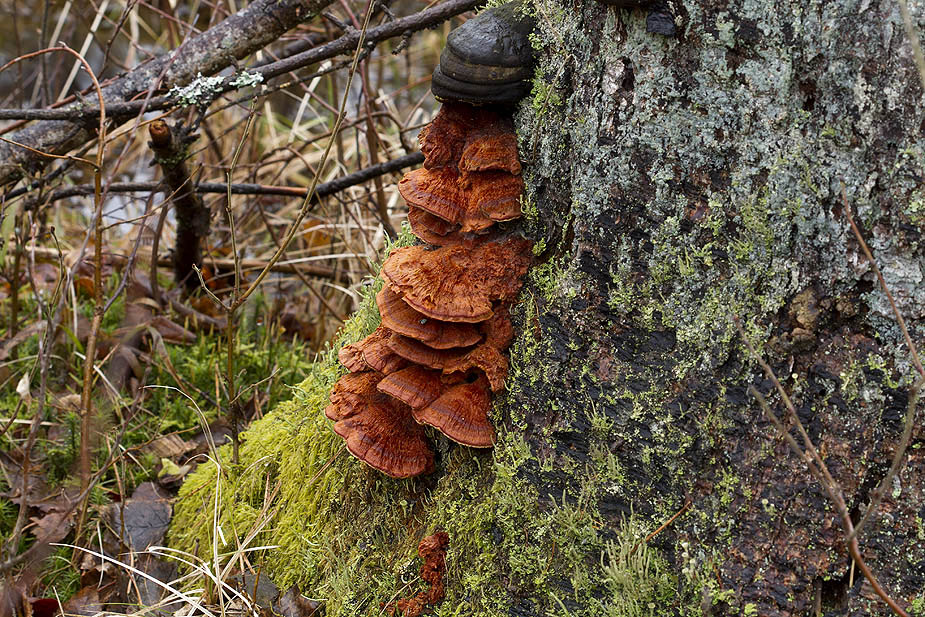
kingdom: Fungi
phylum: Basidiomycota
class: Agaricomycetes
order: Polyporales
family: Pycnoporellaceae
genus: Pycnoporellus
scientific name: Pycnoporellus fulgens
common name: flammeporesvamp
